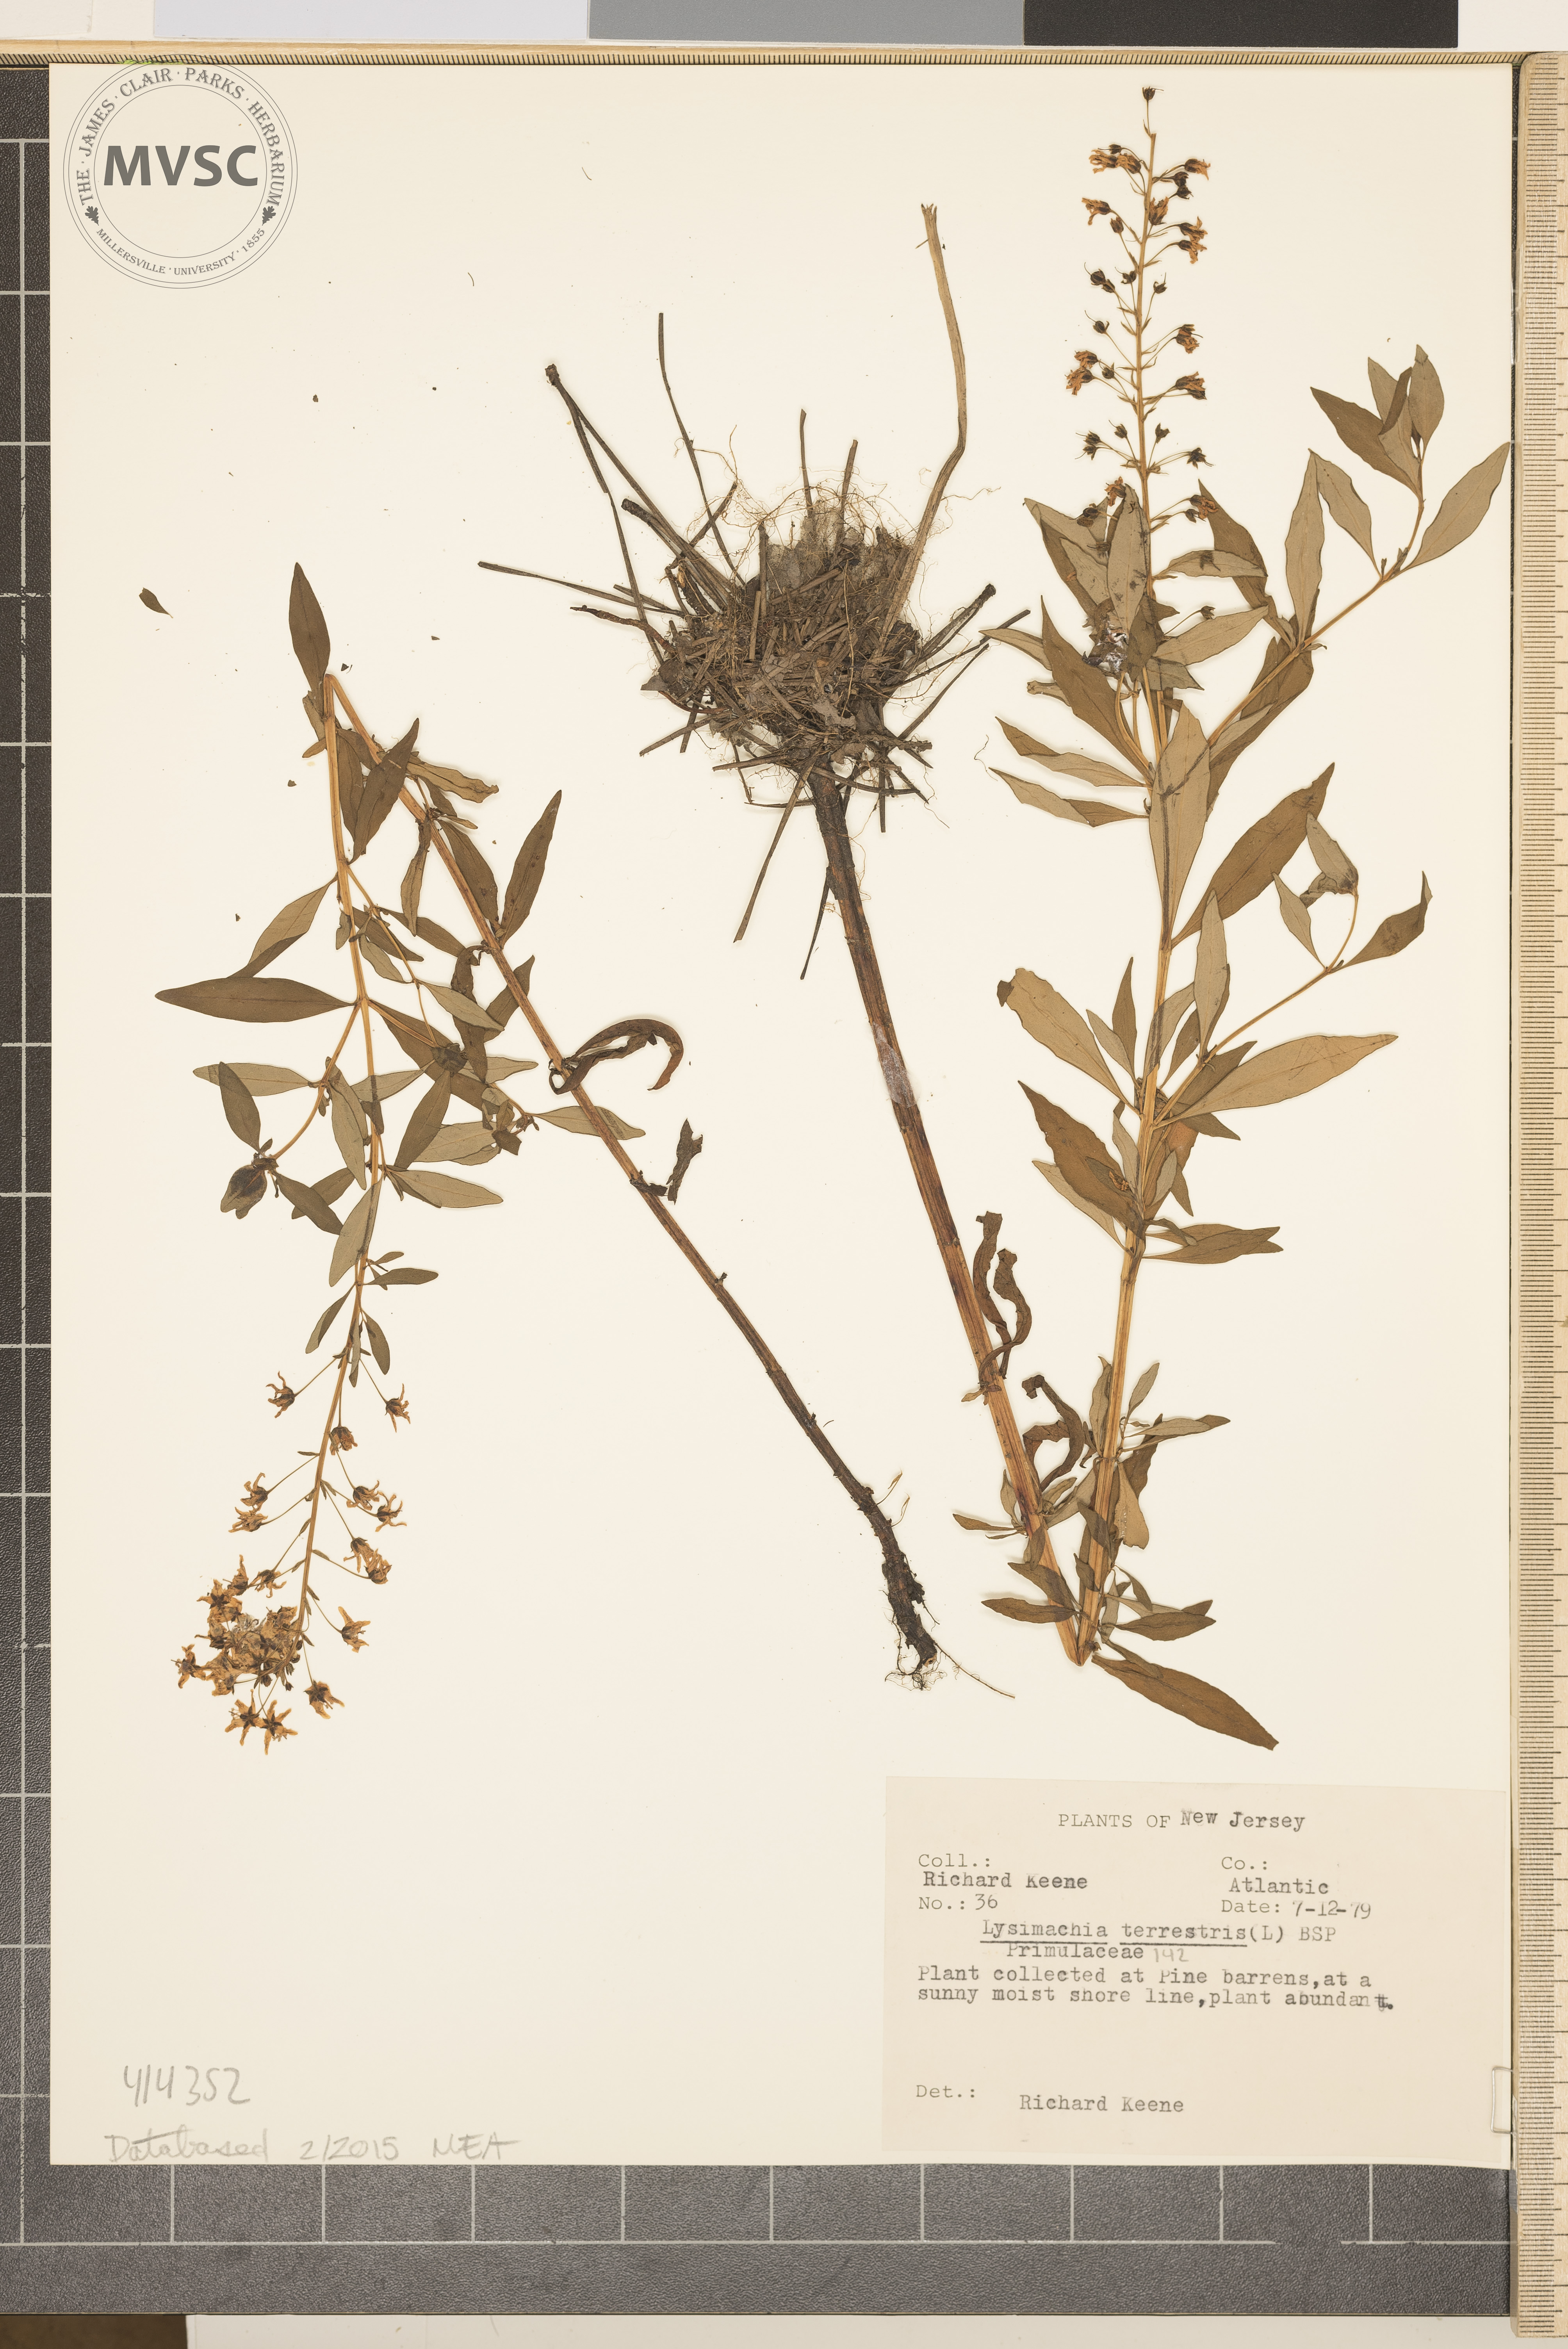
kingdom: Plantae
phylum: Tracheophyta
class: Magnoliopsida
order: Ericales
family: Primulaceae
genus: Lysimachia
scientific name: Lysimachia terrestris
